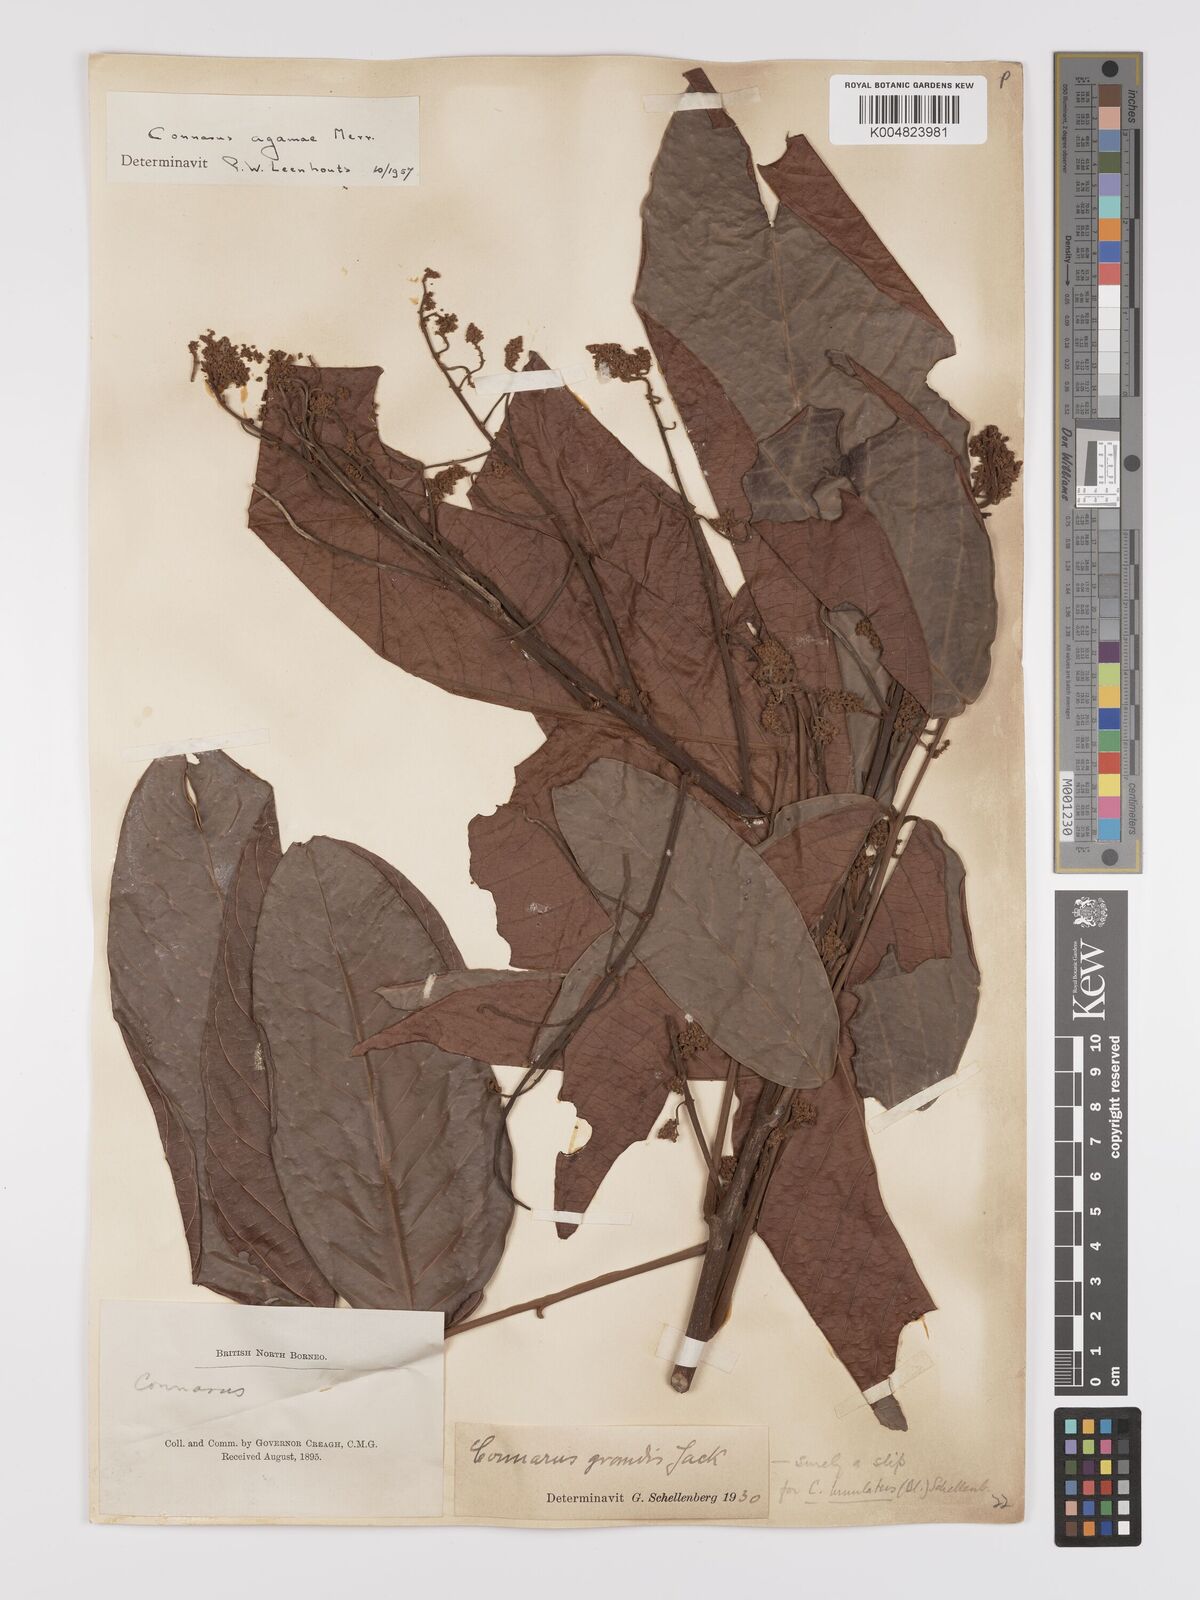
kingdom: Plantae
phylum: Tracheophyta
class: Magnoliopsida
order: Oxalidales
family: Connaraceae
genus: Connarus
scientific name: Connarus grandis
